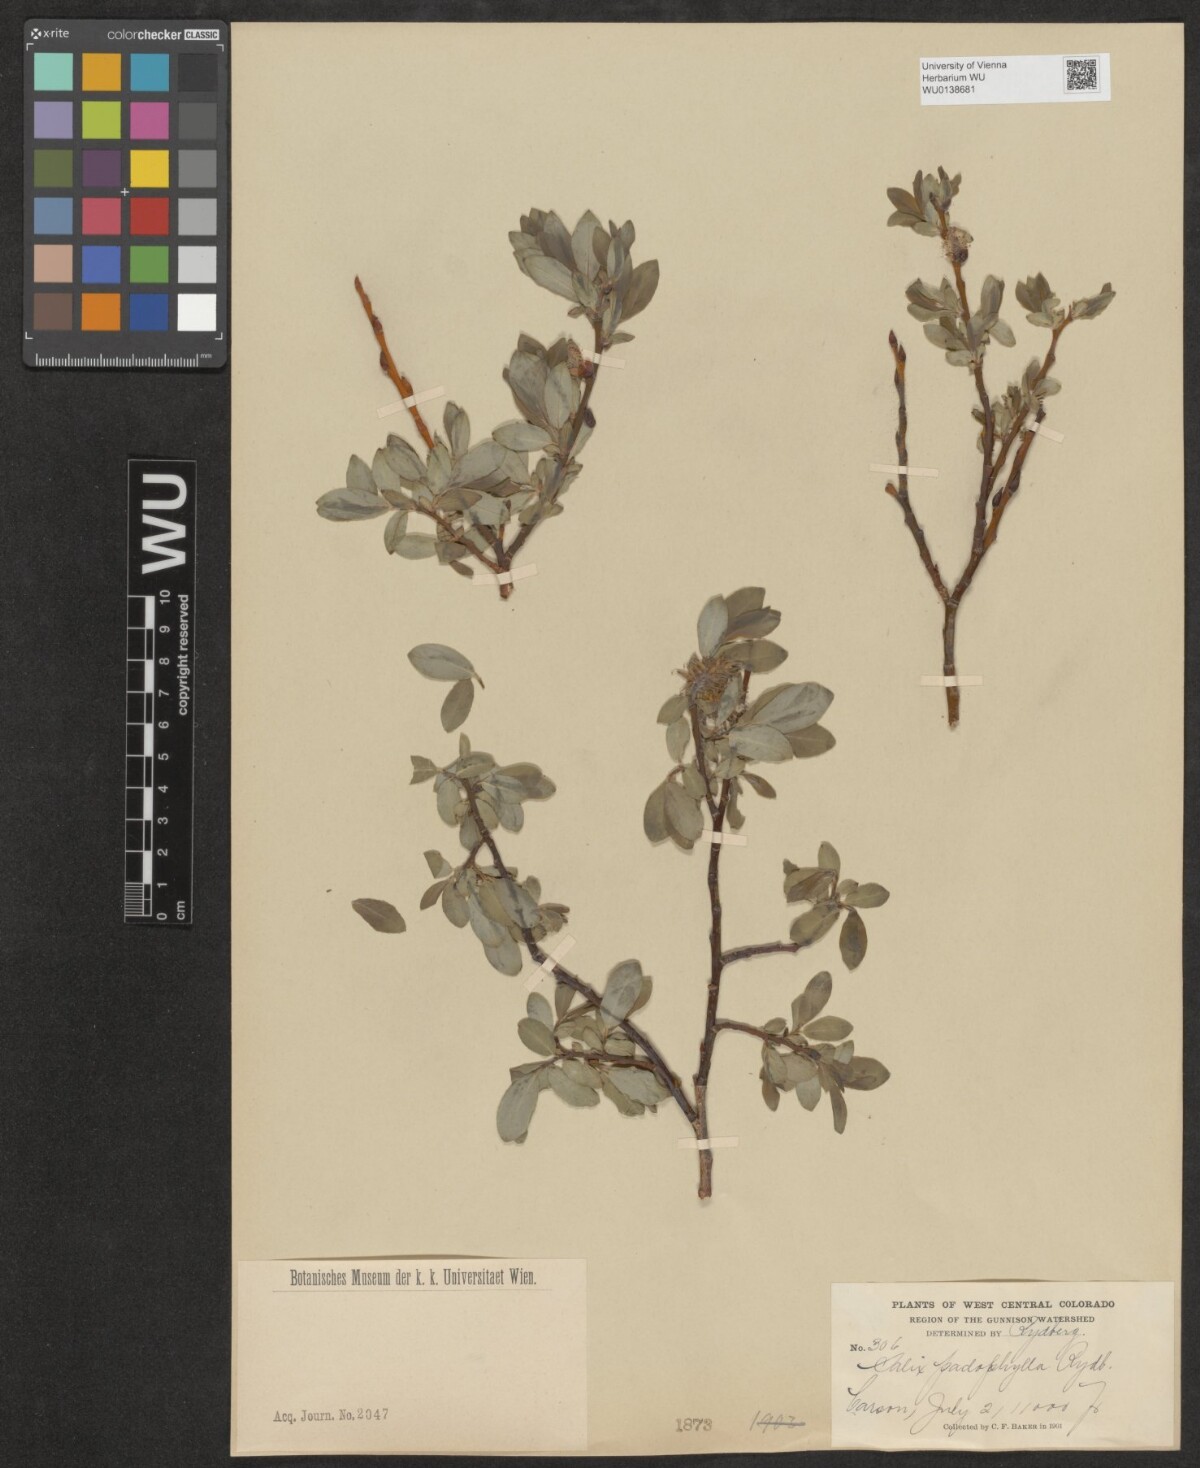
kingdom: Plantae
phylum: Tracheophyta
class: Magnoliopsida
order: Malpighiales
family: Salicaceae
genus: Salix
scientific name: Salix monticola
